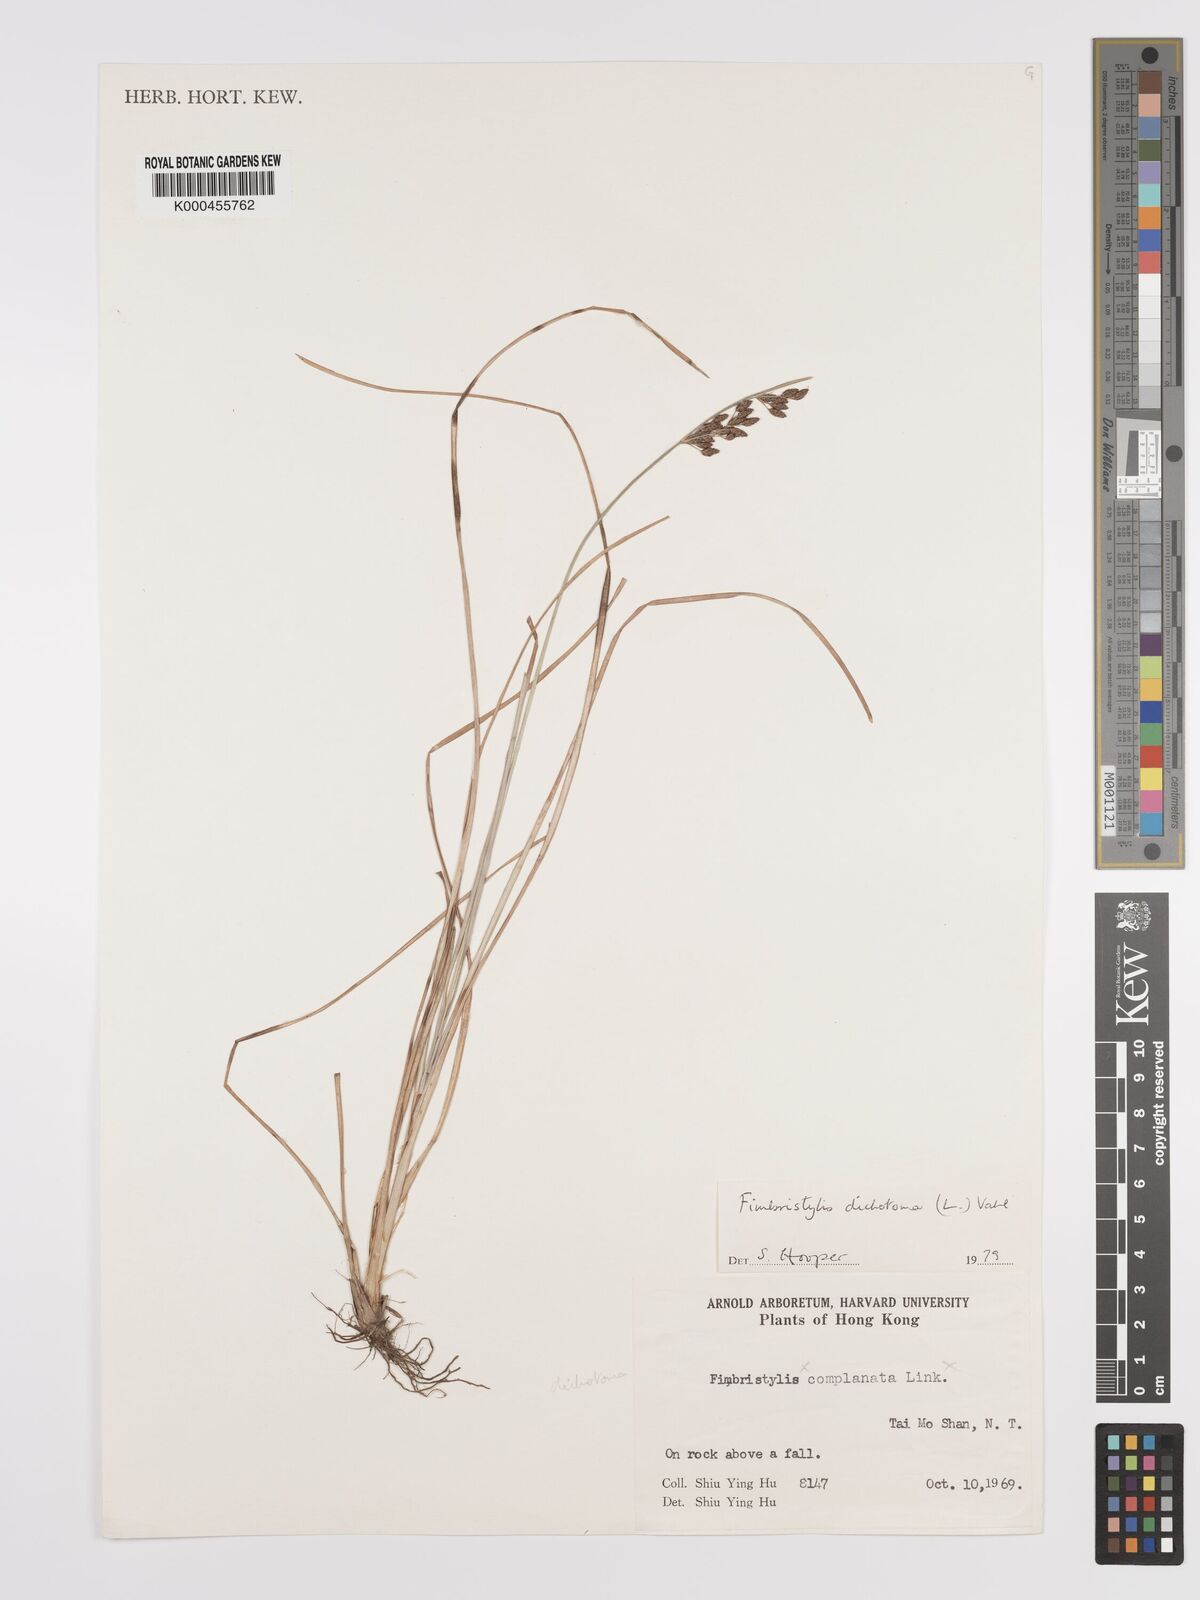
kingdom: Plantae
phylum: Tracheophyta
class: Liliopsida
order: Poales
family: Cyperaceae
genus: Fimbristylis
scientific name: Fimbristylis dichotoma
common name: Forked fimbry
